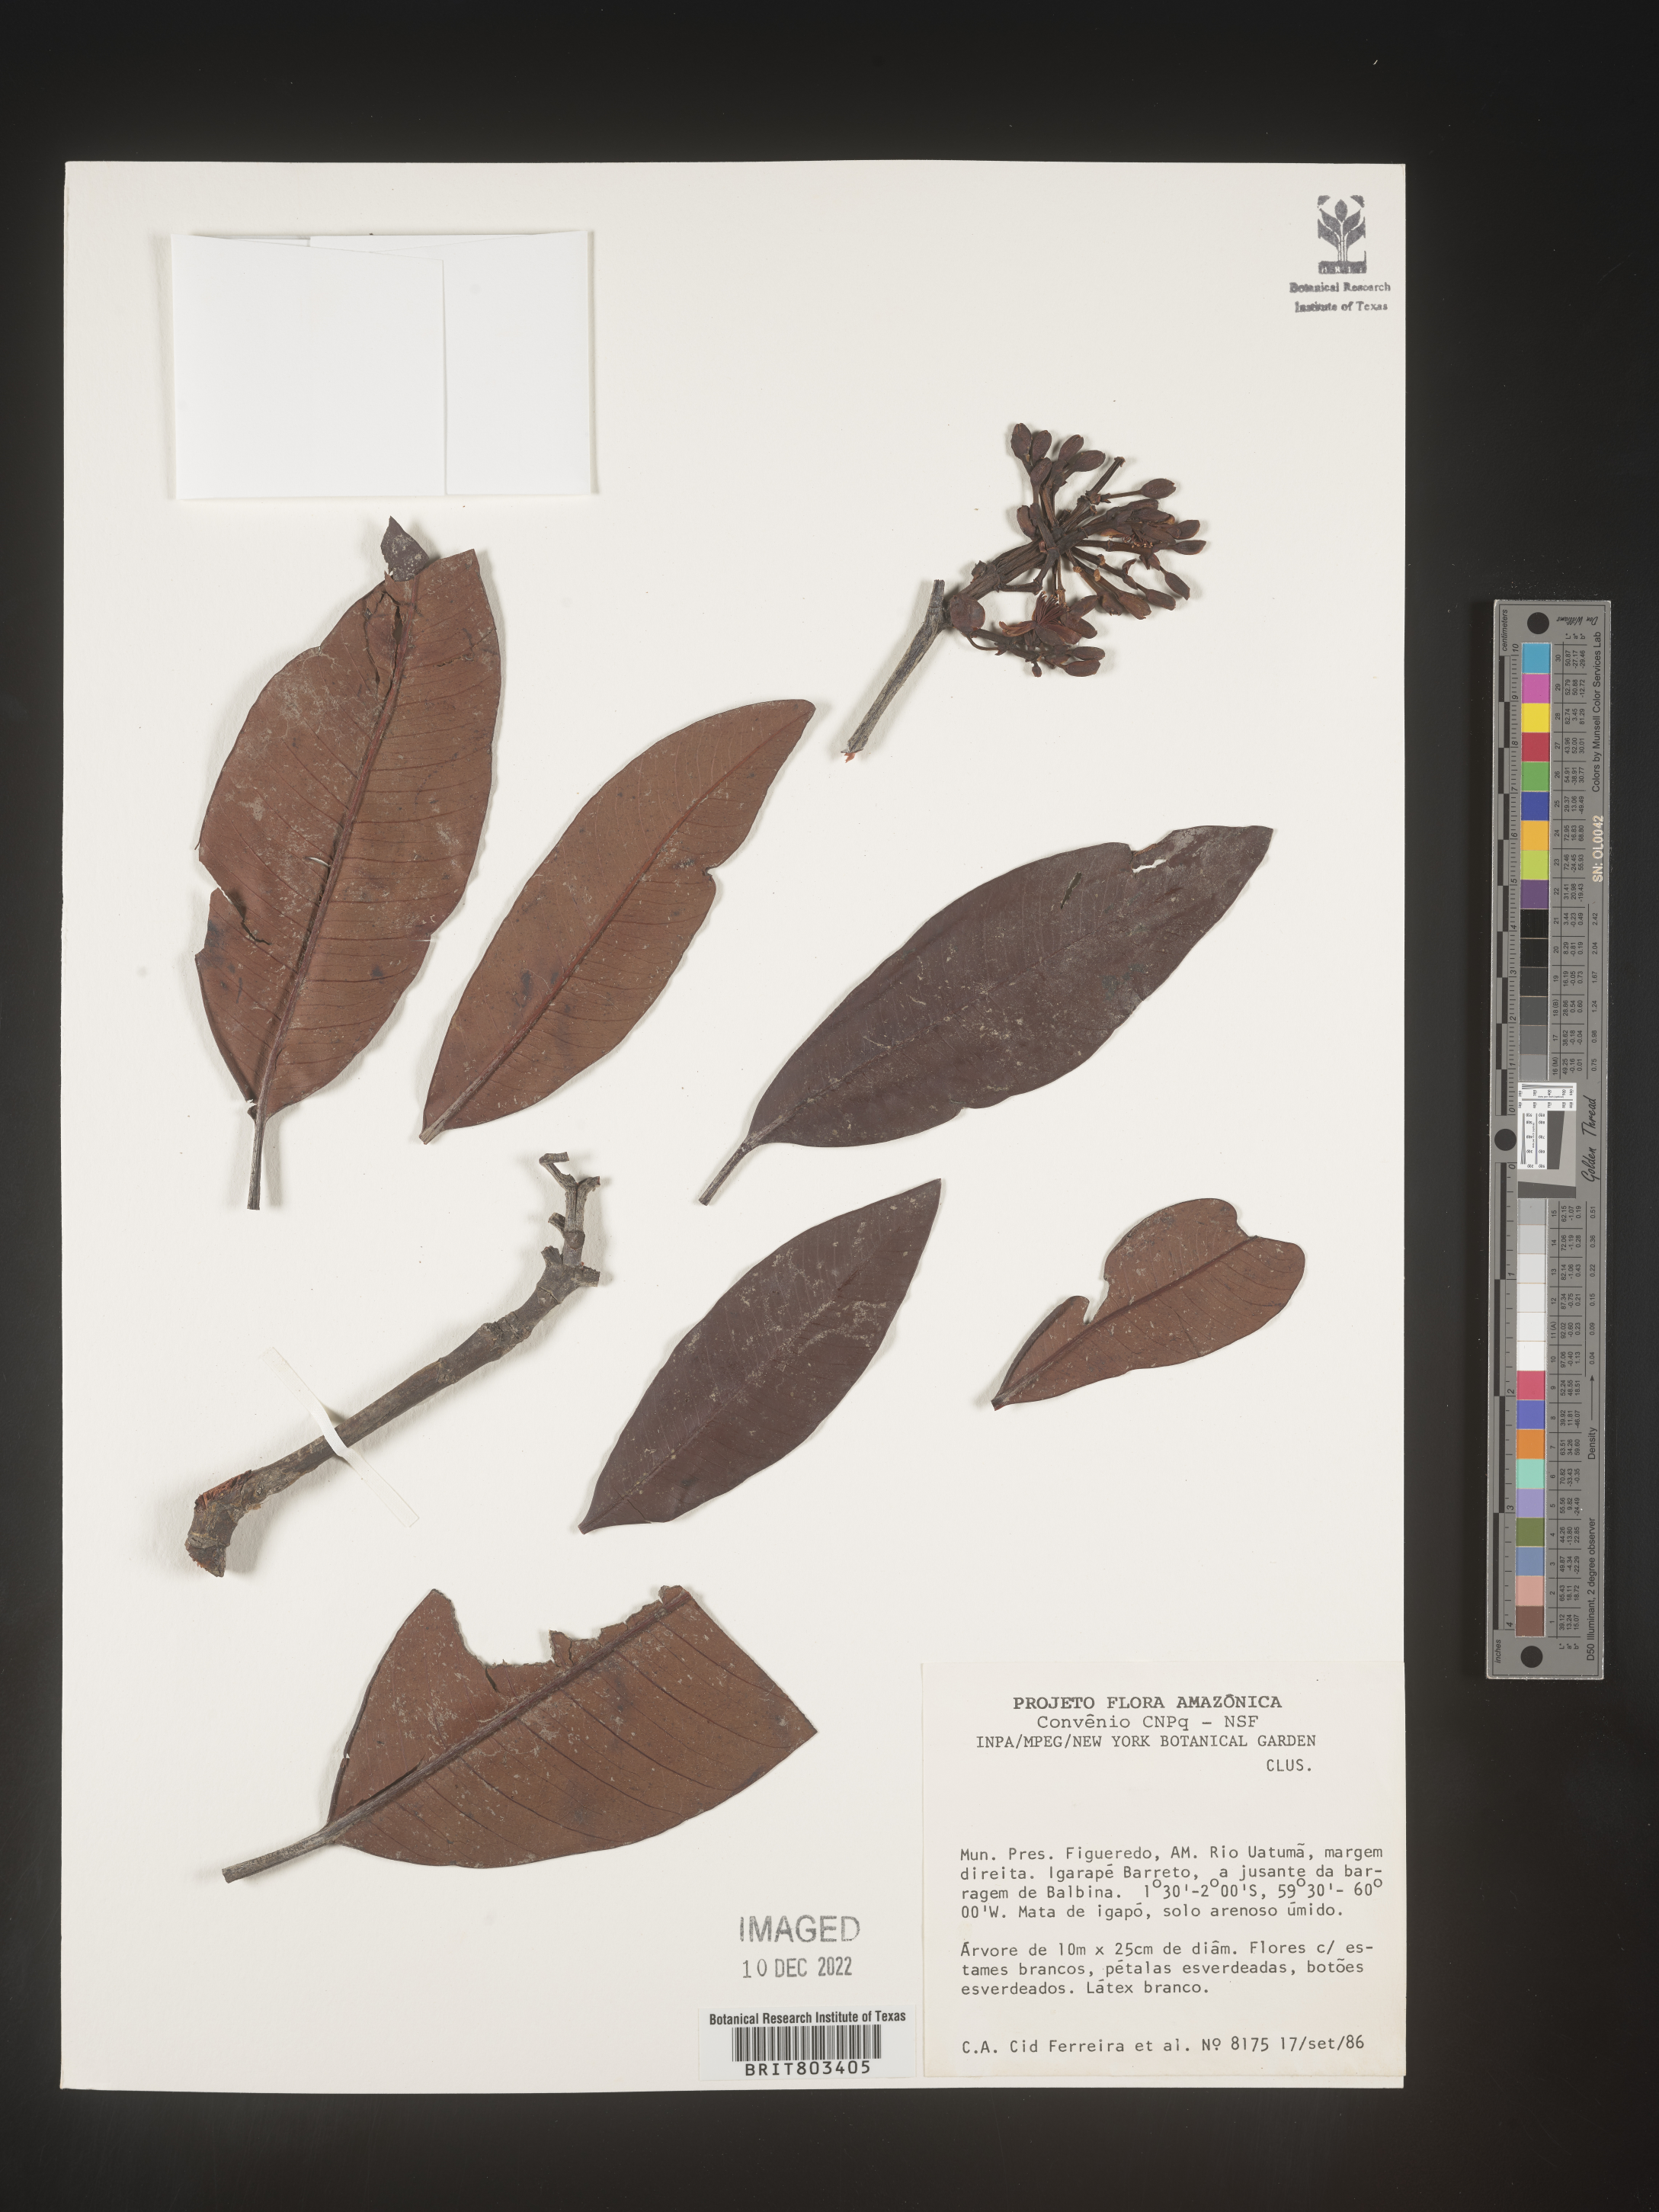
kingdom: Plantae
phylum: Tracheophyta
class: Magnoliopsida
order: Malpighiales
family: Clusiaceae
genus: Tovomita
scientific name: Tovomita
